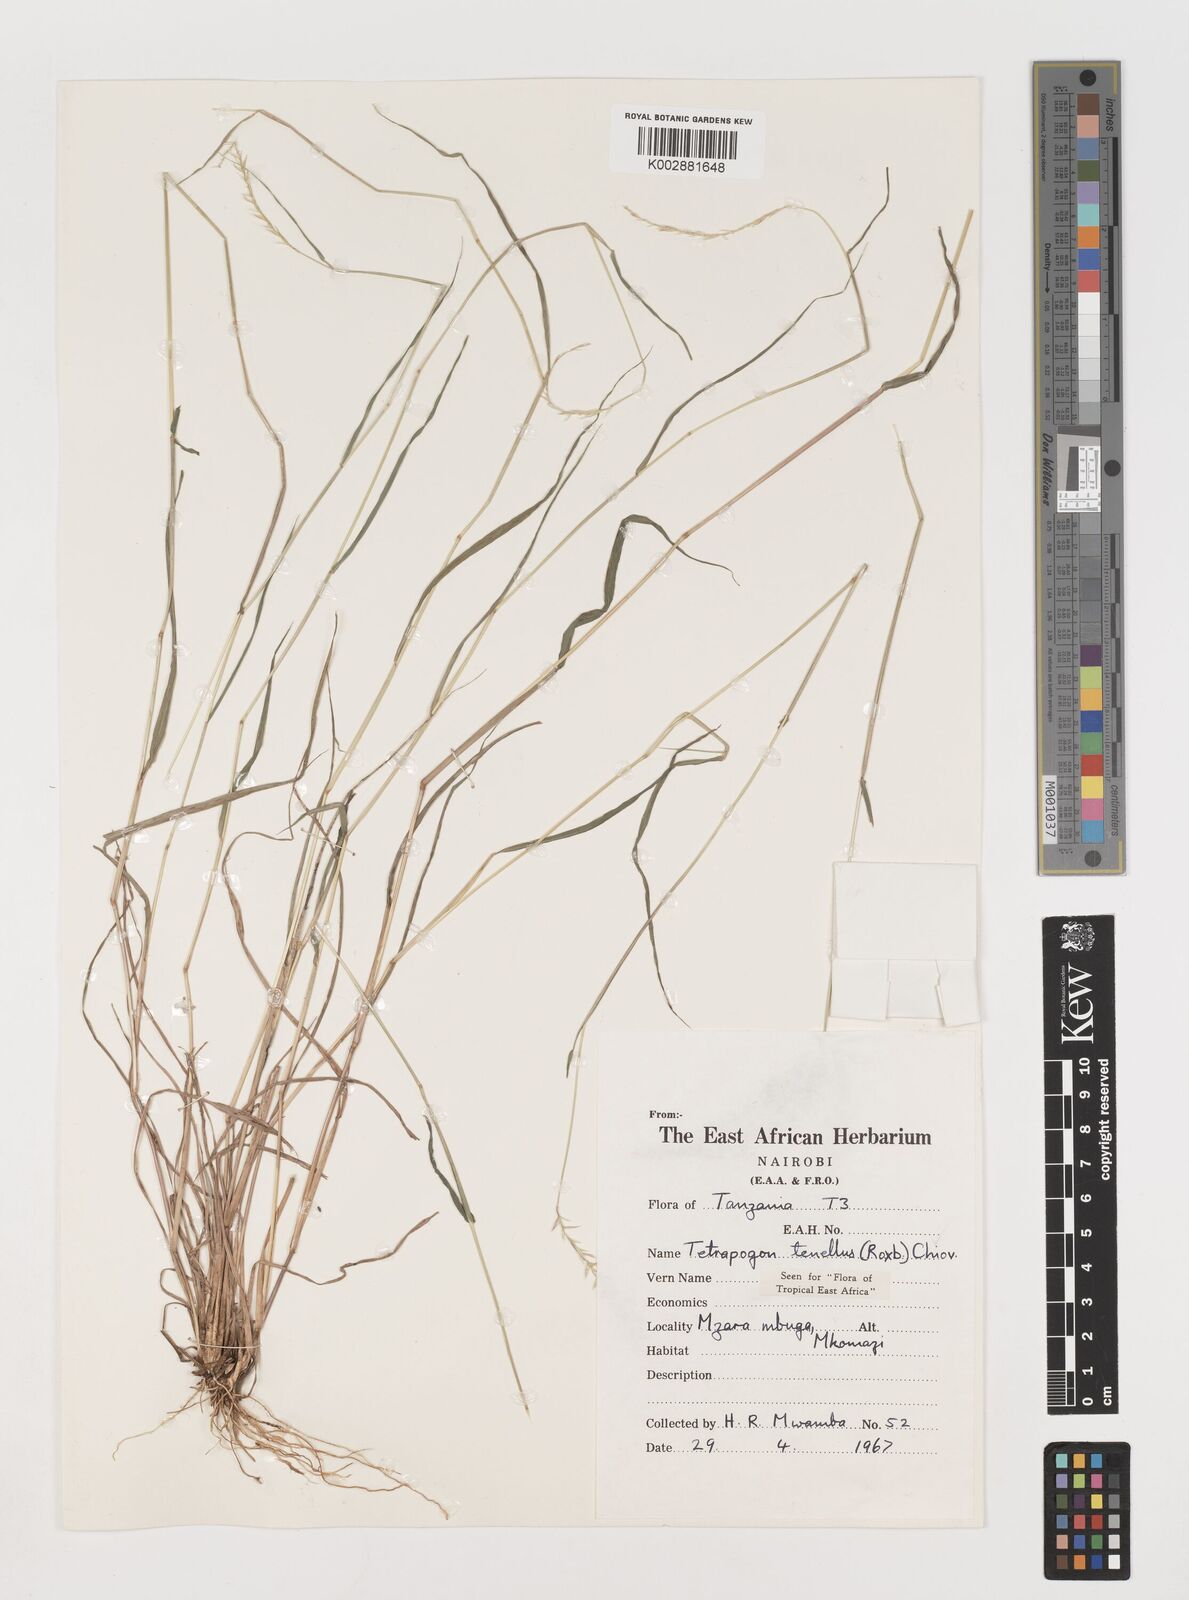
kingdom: Plantae
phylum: Tracheophyta
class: Liliopsida
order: Poales
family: Poaceae
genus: Tetrapogon
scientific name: Tetrapogon tenellus
